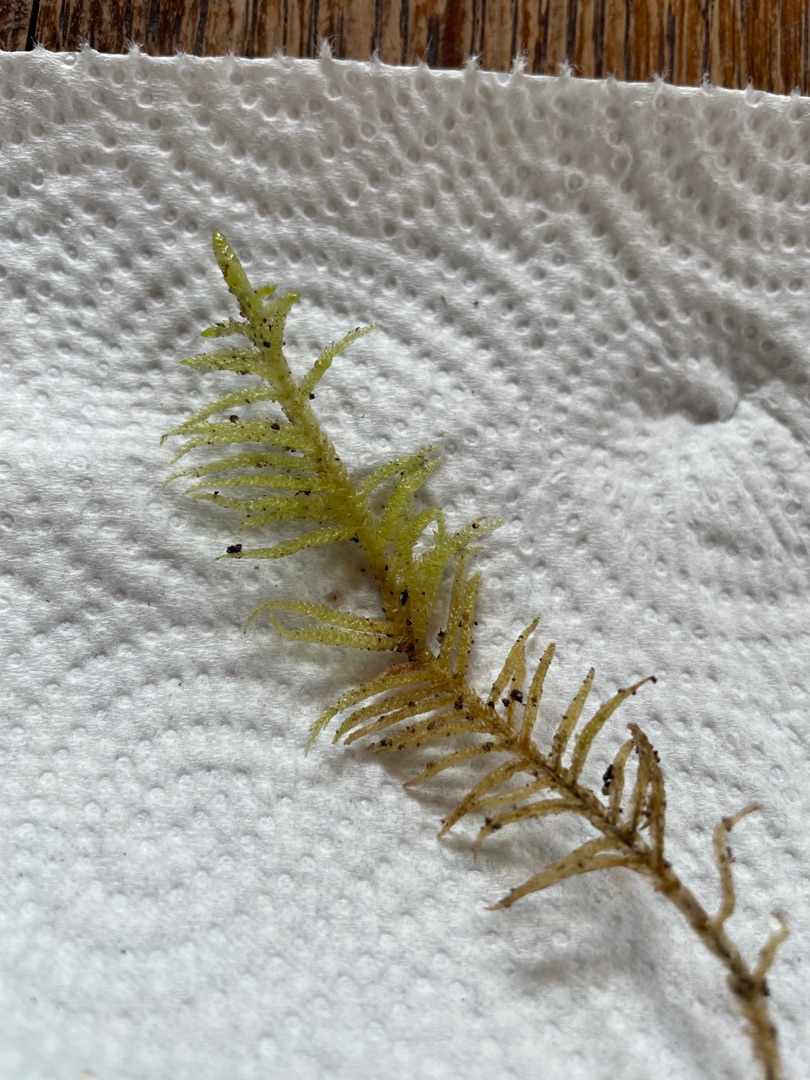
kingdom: Plantae
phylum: Bryophyta
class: Bryopsida
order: Hypnales
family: Brachytheciaceae
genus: Pseudoscleropodium
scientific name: Pseudoscleropodium purum
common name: Hulbladet fedtmos
